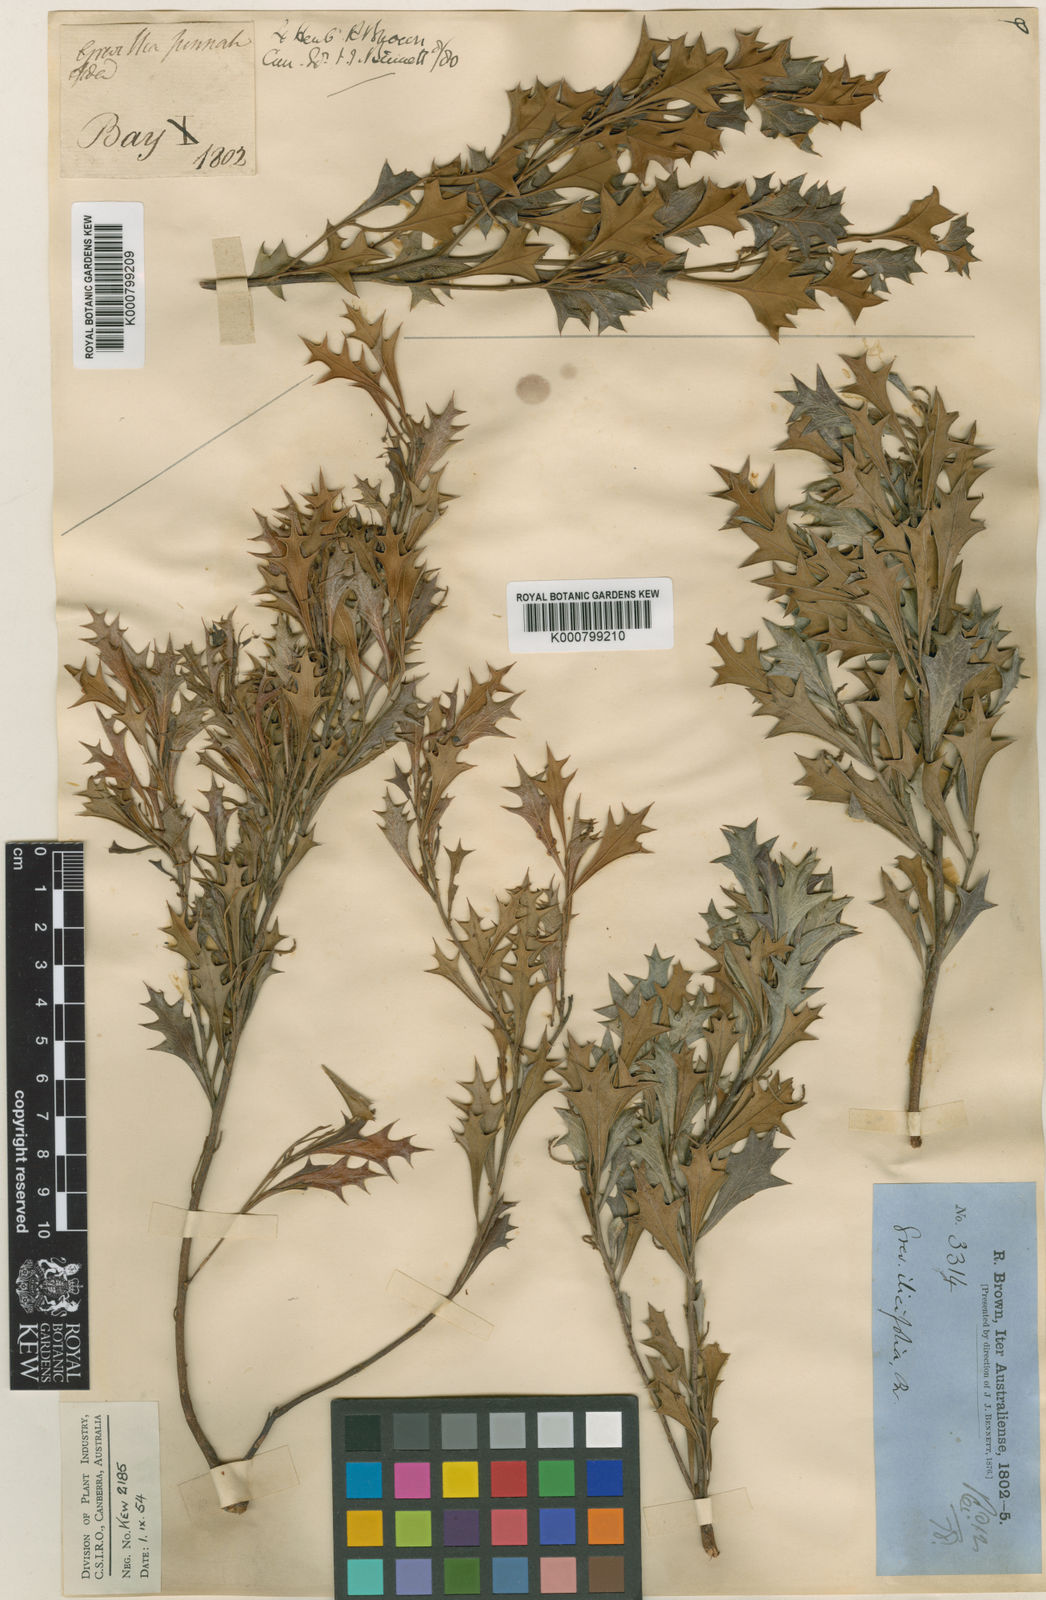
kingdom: Plantae
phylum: Tracheophyta
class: Magnoliopsida
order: Proteales
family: Proteaceae
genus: Grevillea
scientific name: Grevillea ilicifolia
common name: Holly grevillea
